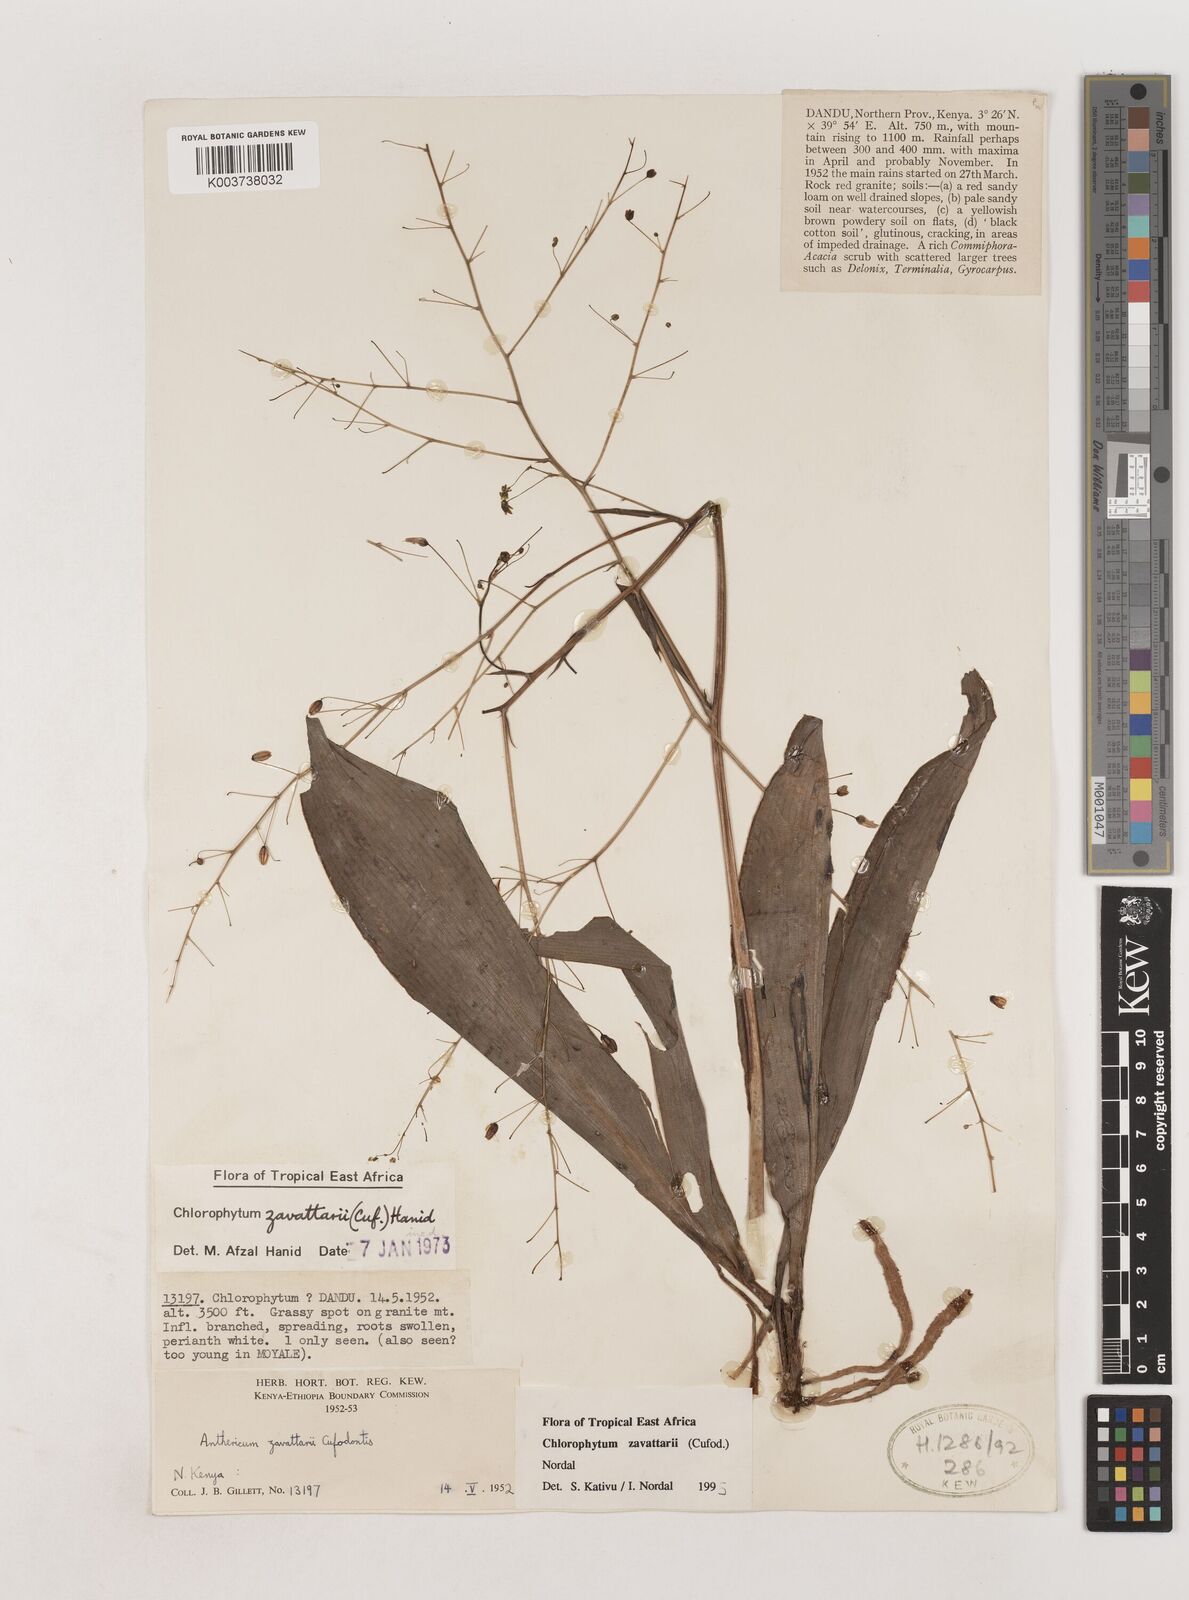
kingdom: Plantae
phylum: Tracheophyta
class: Liliopsida
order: Asparagales
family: Asparagaceae
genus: Chlorophytum
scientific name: Chlorophytum zavattarii
